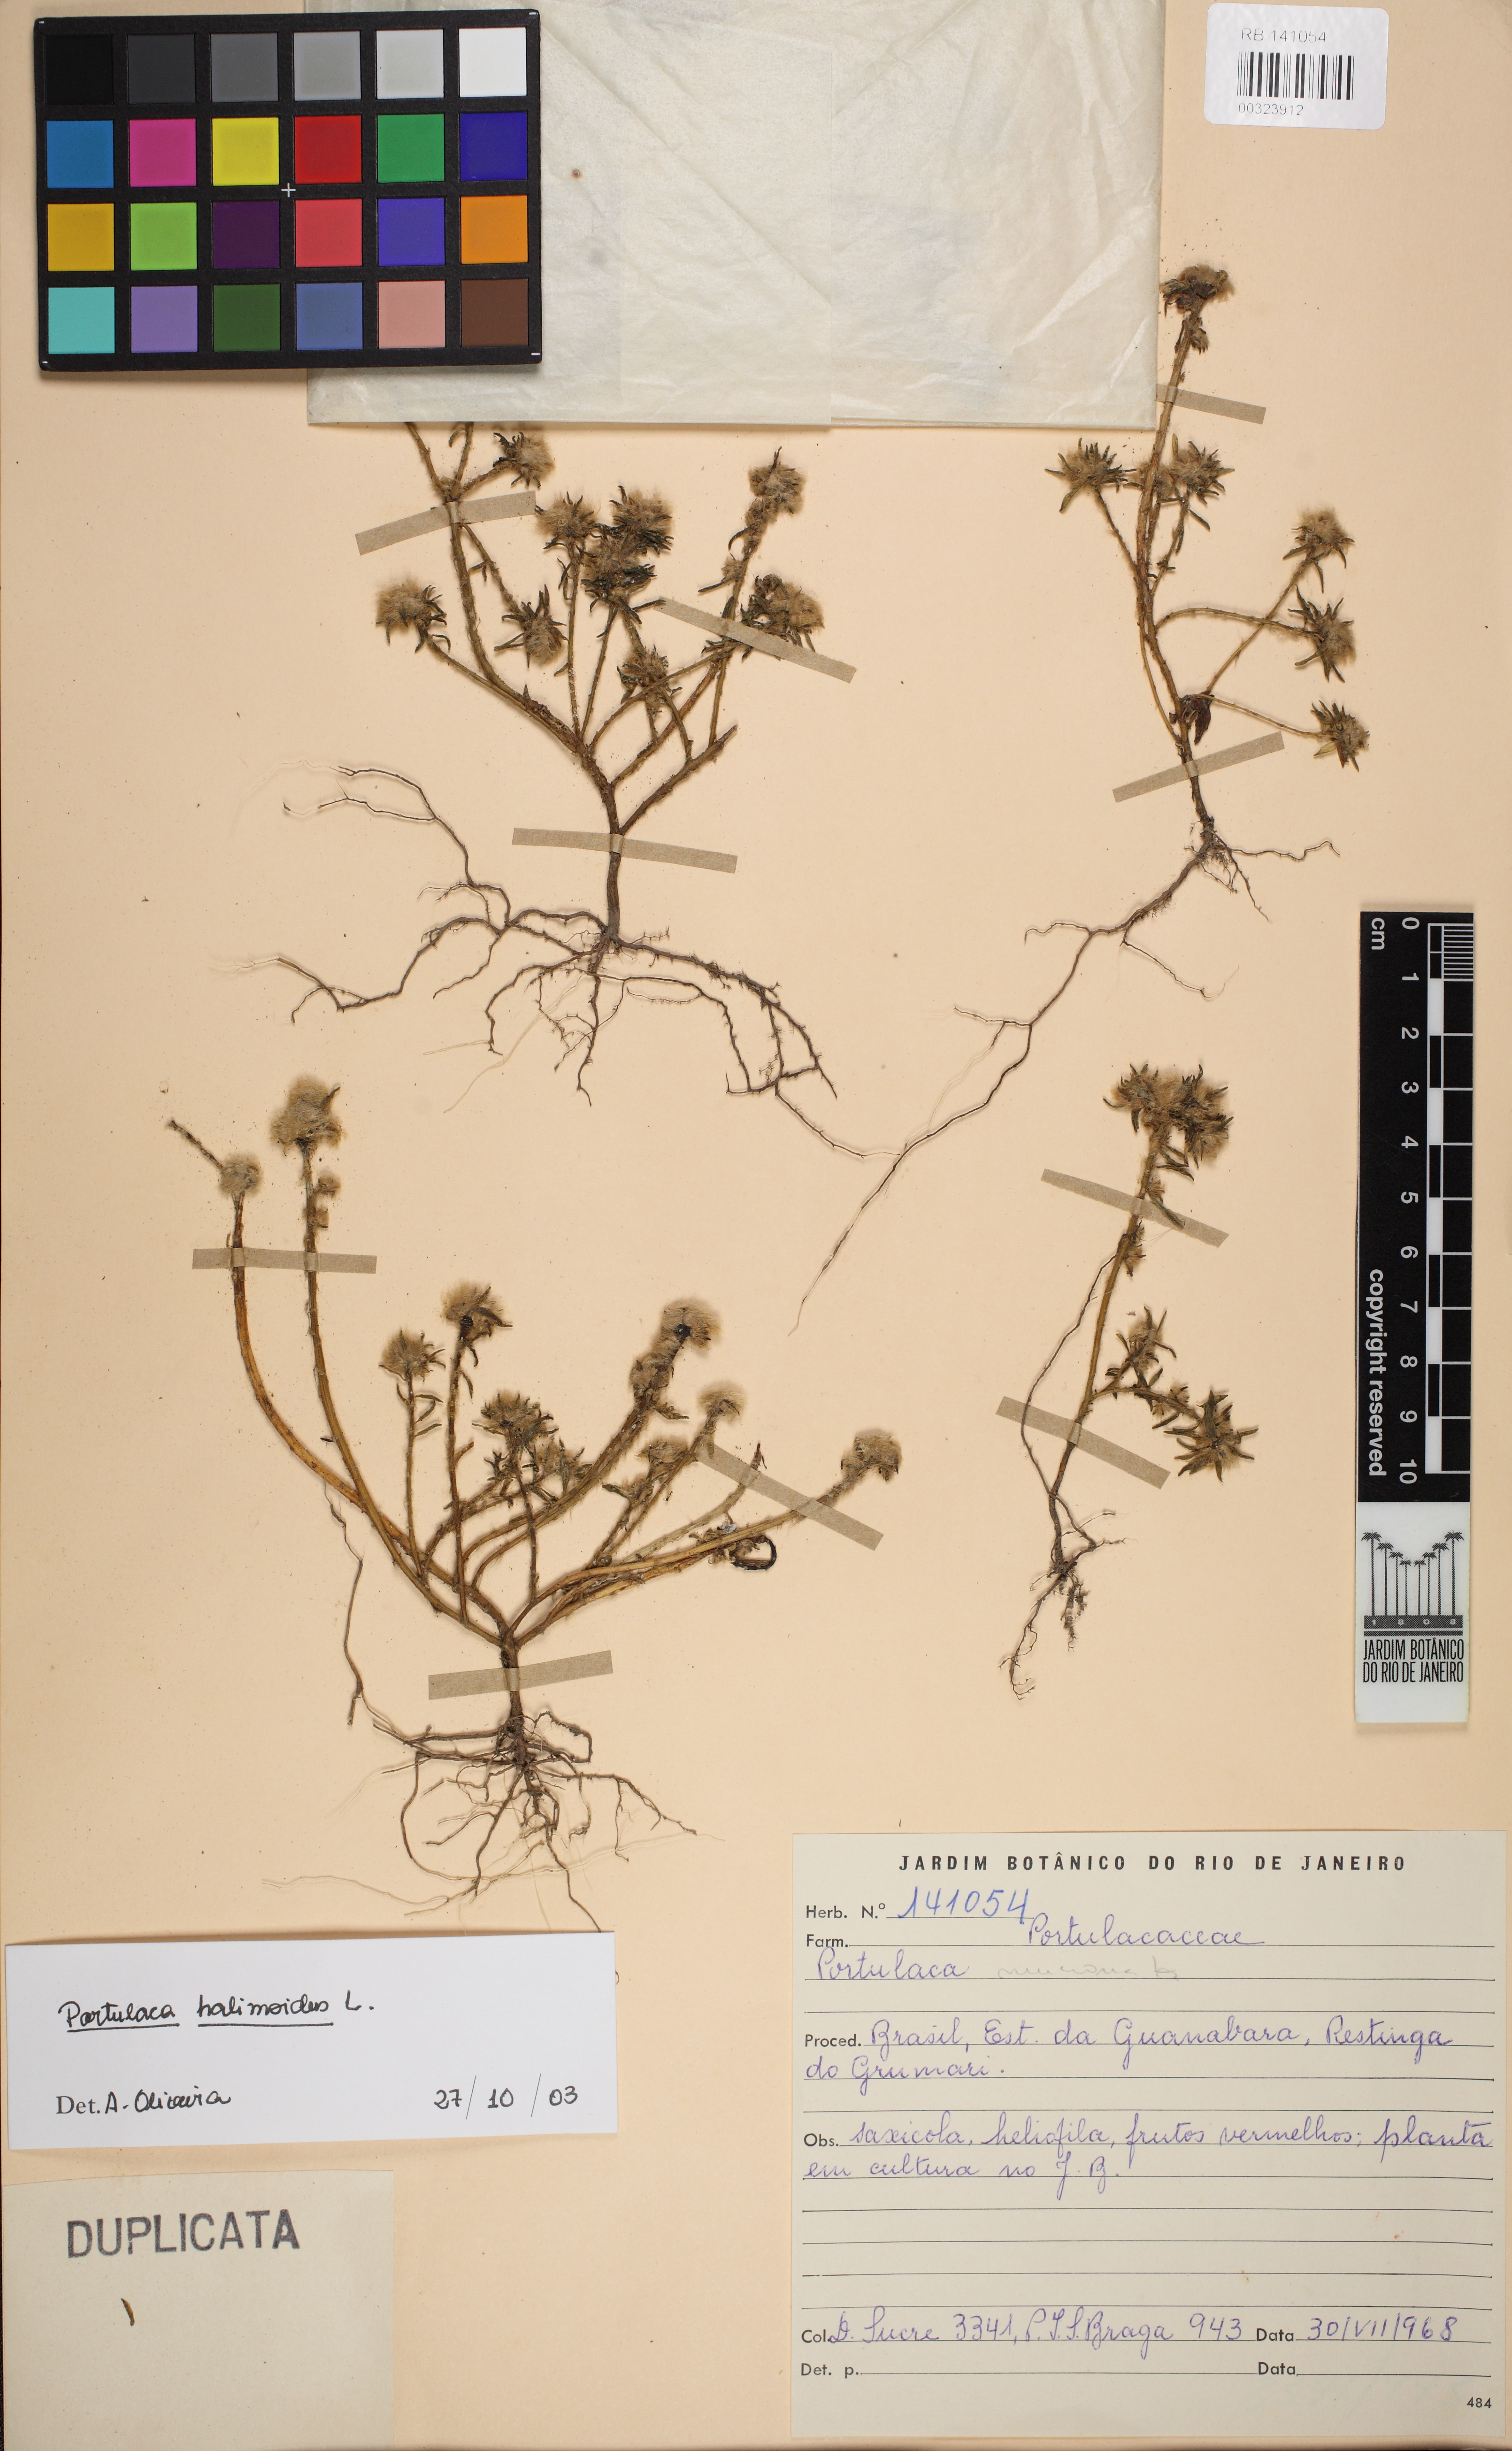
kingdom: Plantae
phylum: Tracheophyta
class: Magnoliopsida
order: Caryophyllales
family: Portulacaceae
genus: Portulaca
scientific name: Portulaca halimoides
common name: Silk cotton purslane
